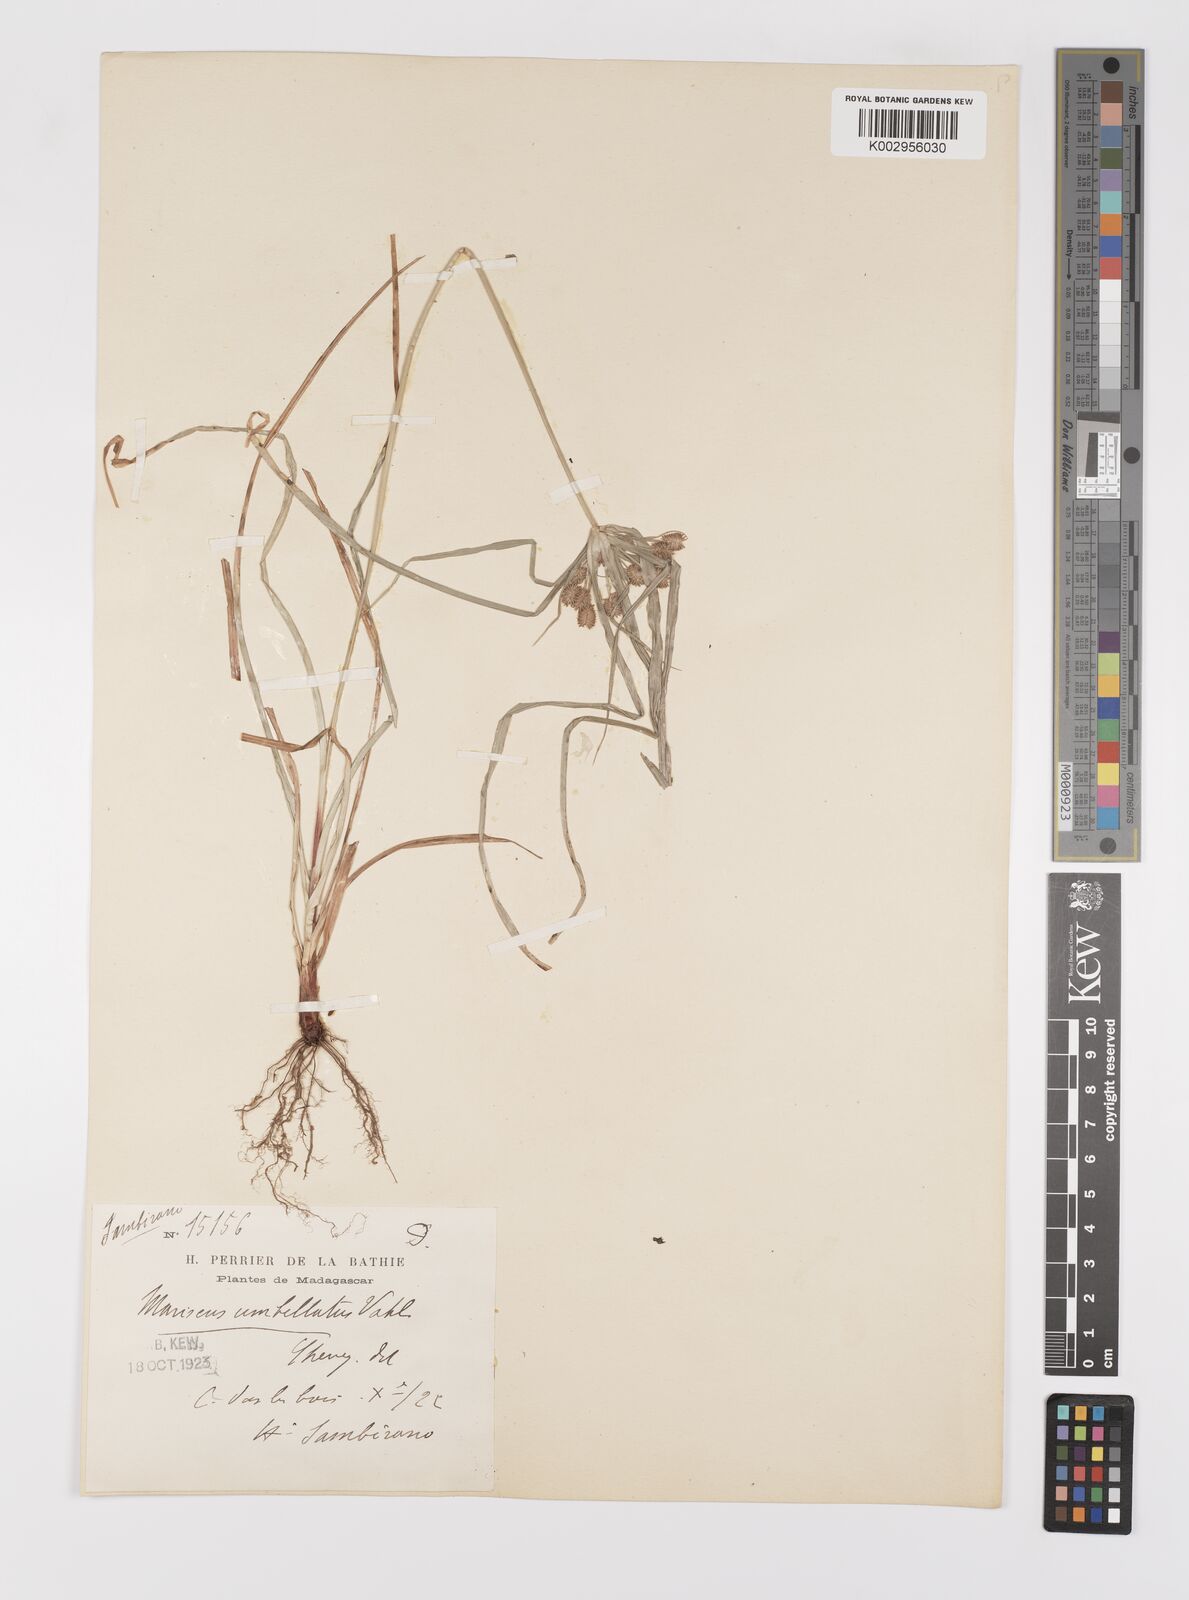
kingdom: Plantae
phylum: Tracheophyta
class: Liliopsida
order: Poales
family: Cyperaceae
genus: Cyperus
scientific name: Cyperus cyperoides
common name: Pacific island flat sedge
